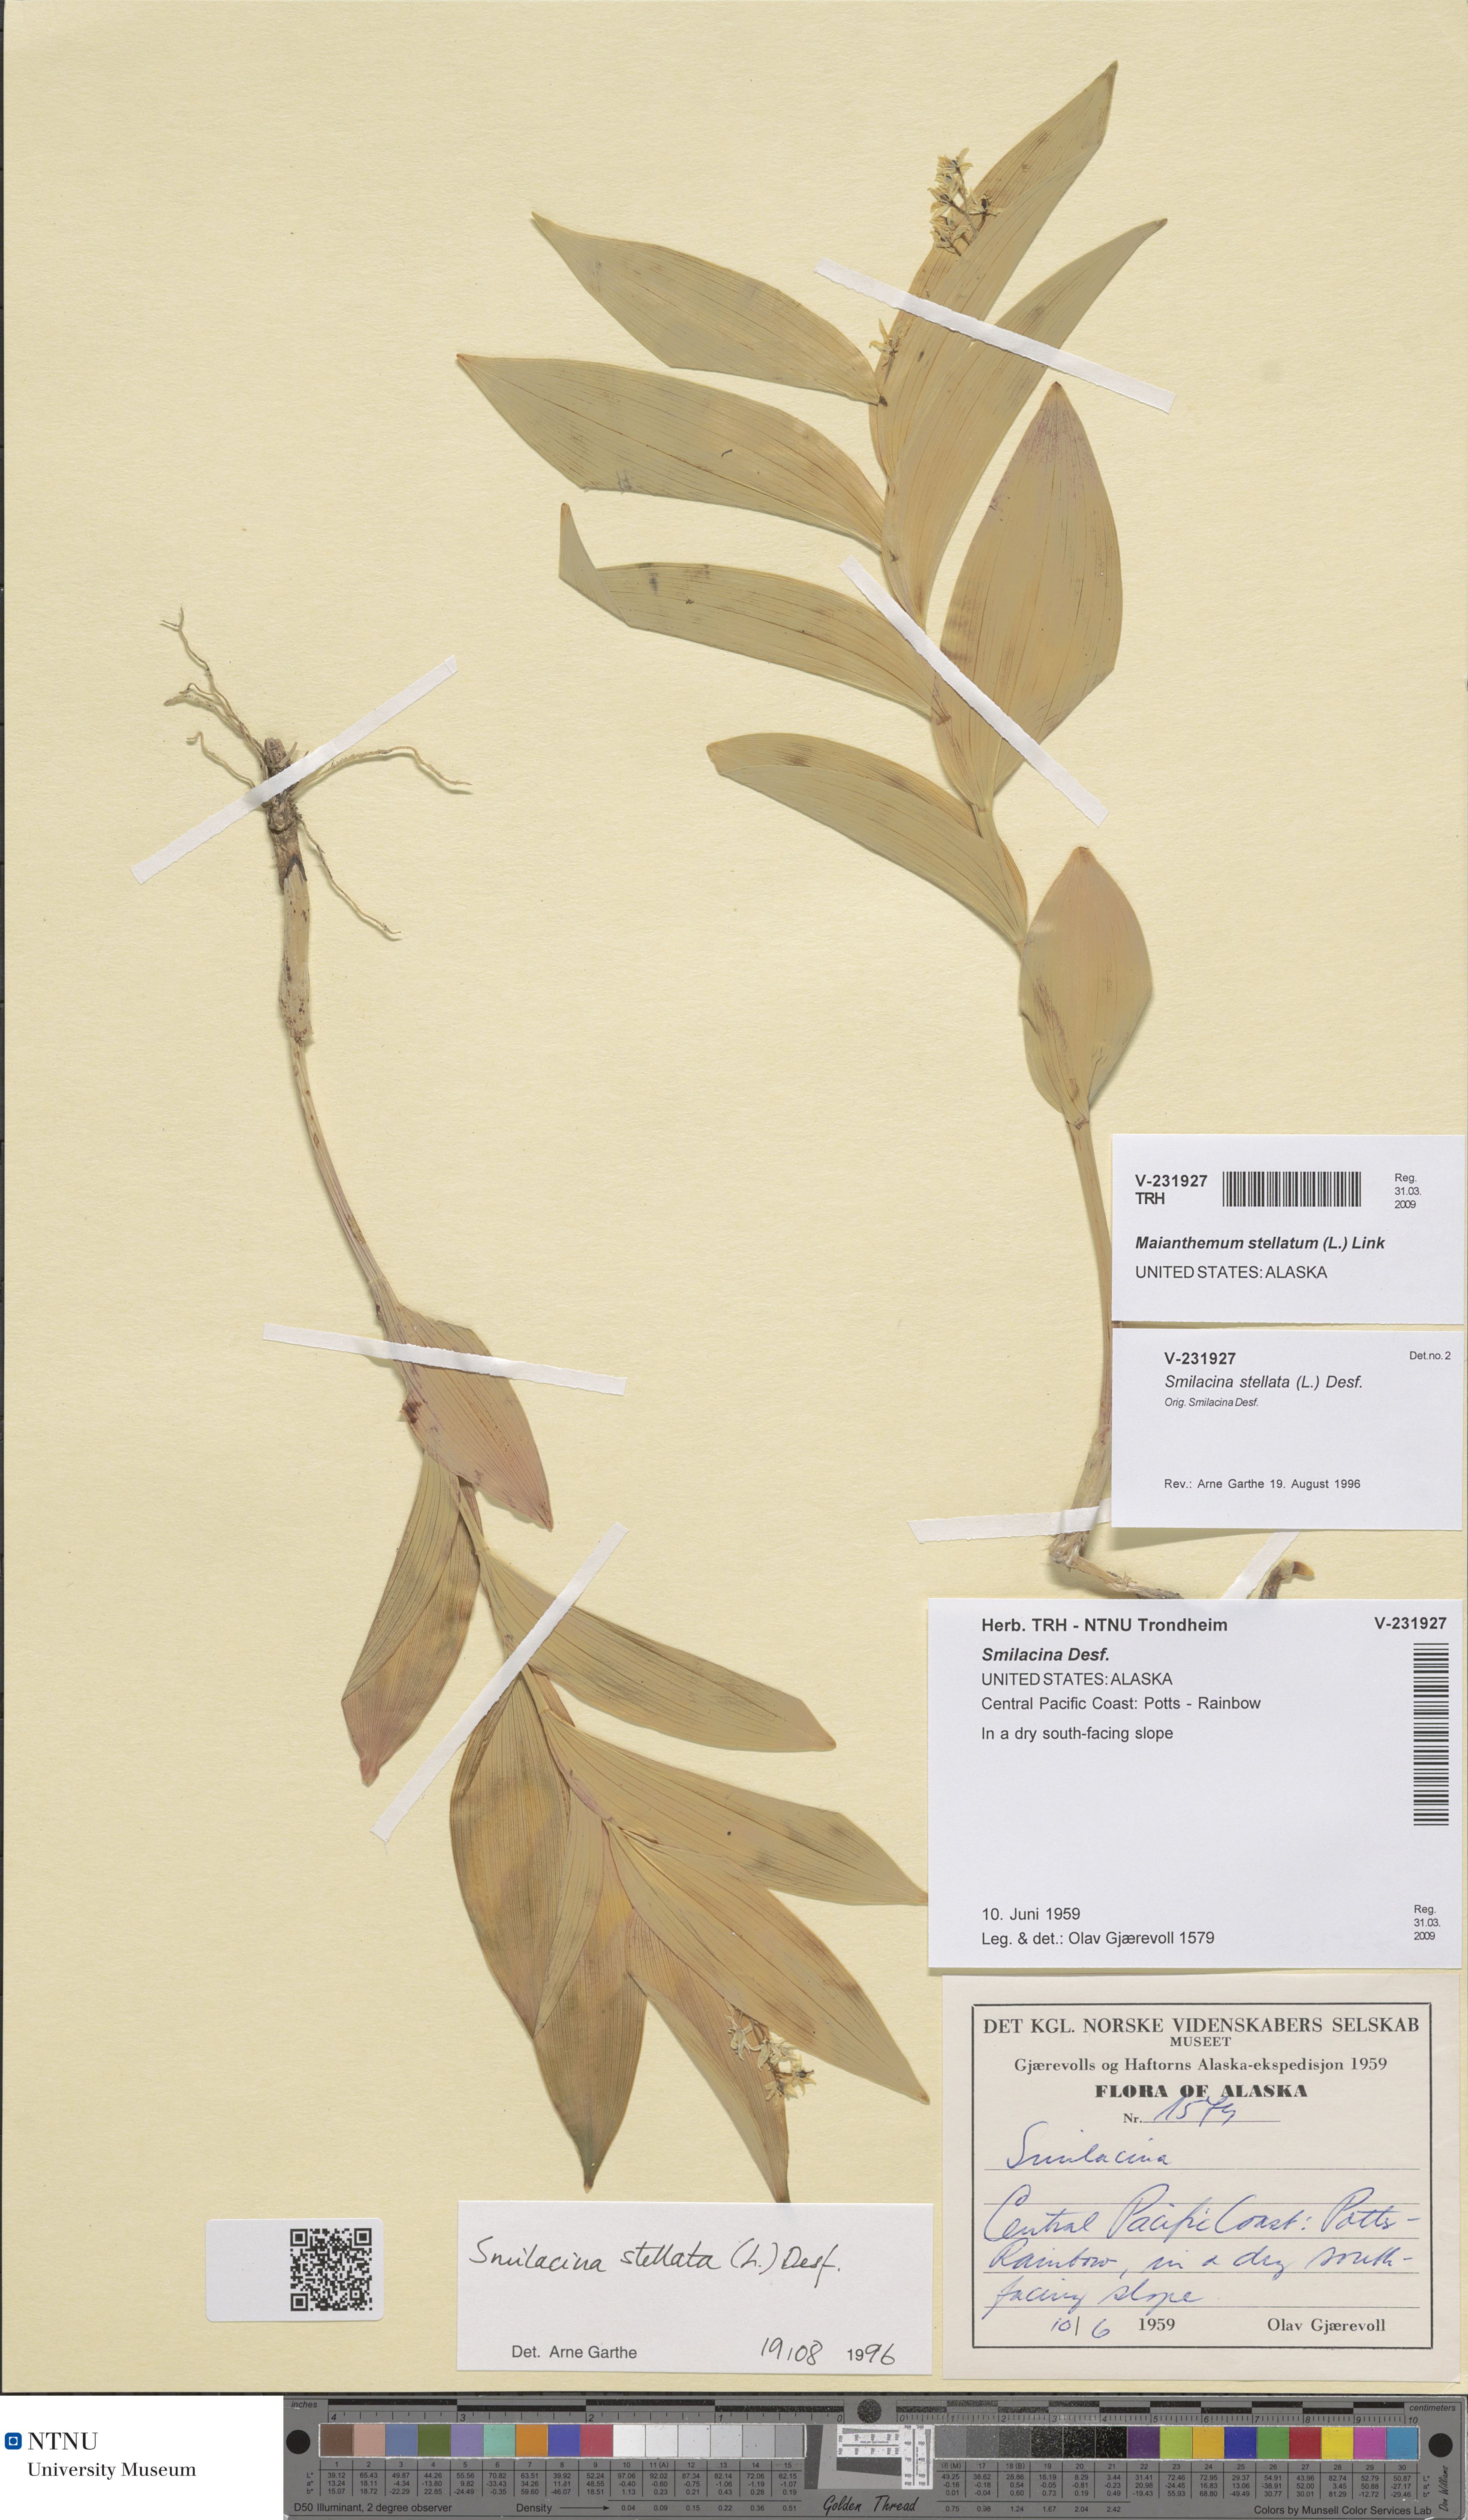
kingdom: Plantae
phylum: Tracheophyta
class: Liliopsida
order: Asparagales
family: Asparagaceae
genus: Maianthemum
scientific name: Maianthemum stellatum
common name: Little false solomon's seal
